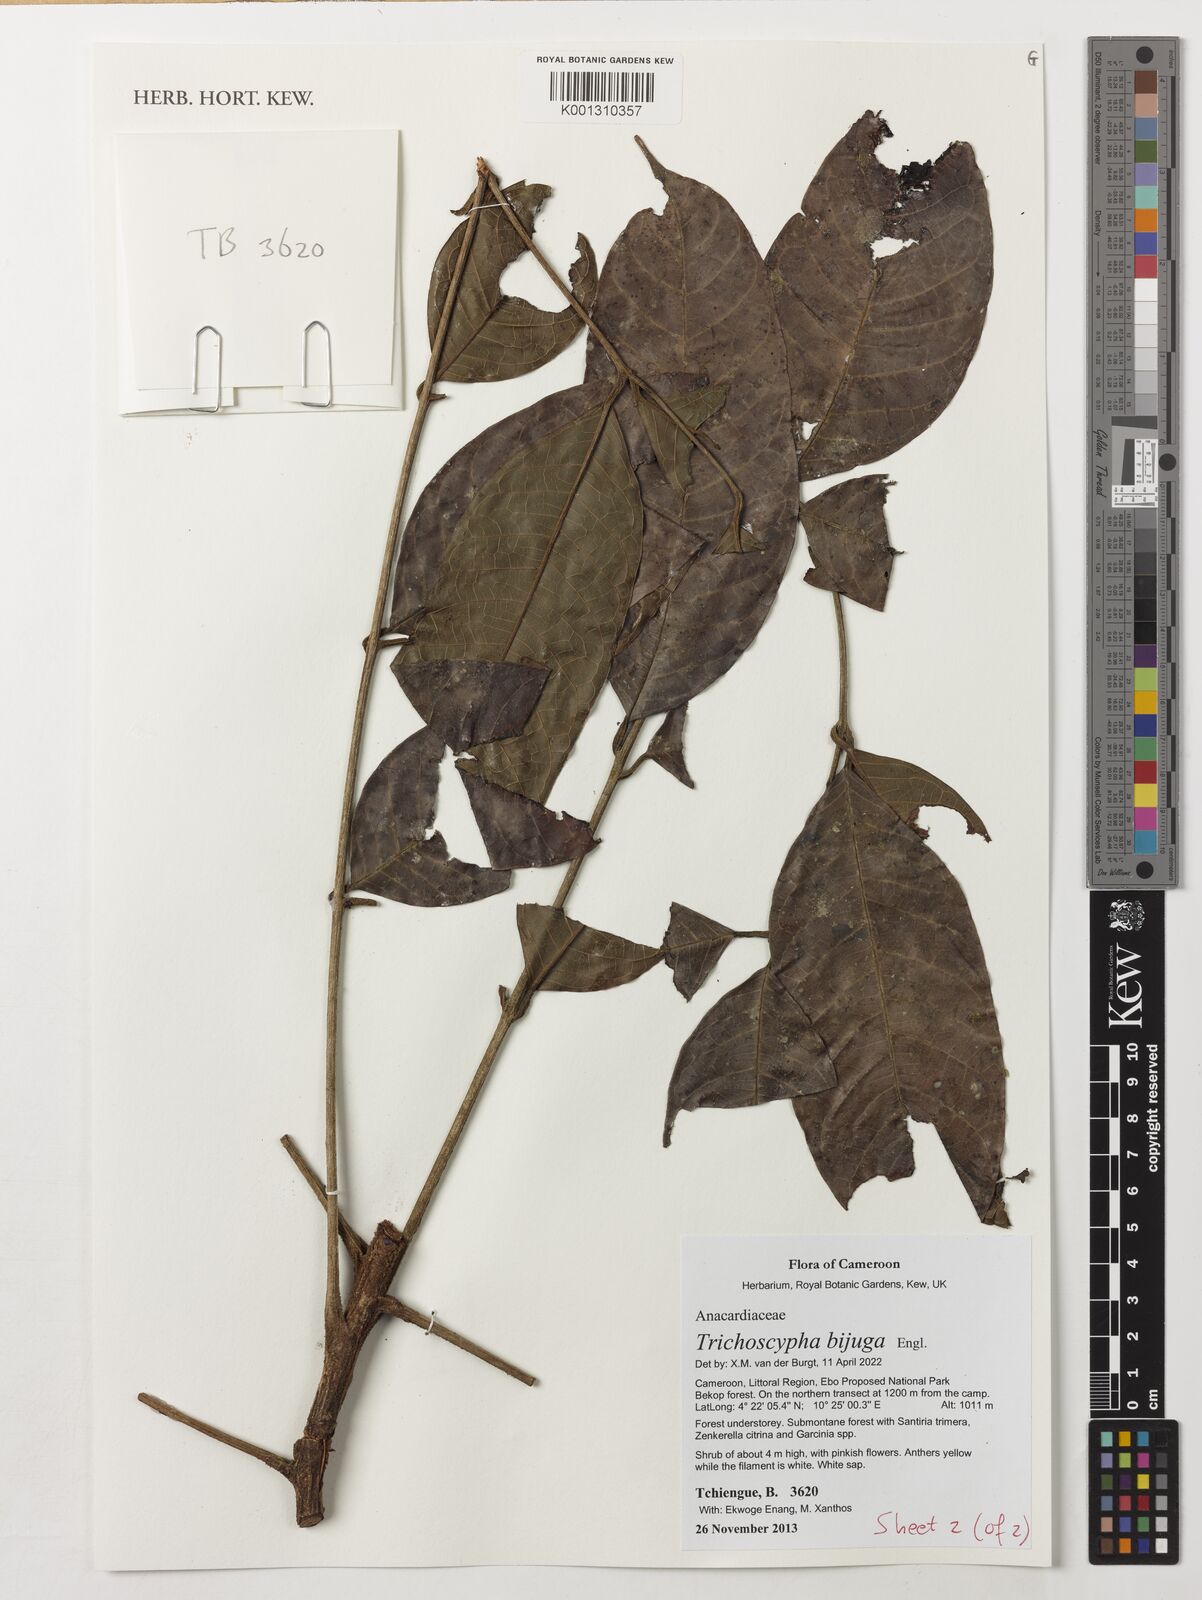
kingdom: Plantae
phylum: Tracheophyta
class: Magnoliopsida
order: Sapindales
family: Anacardiaceae
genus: Trichoscypha
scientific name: Trichoscypha bijuga
